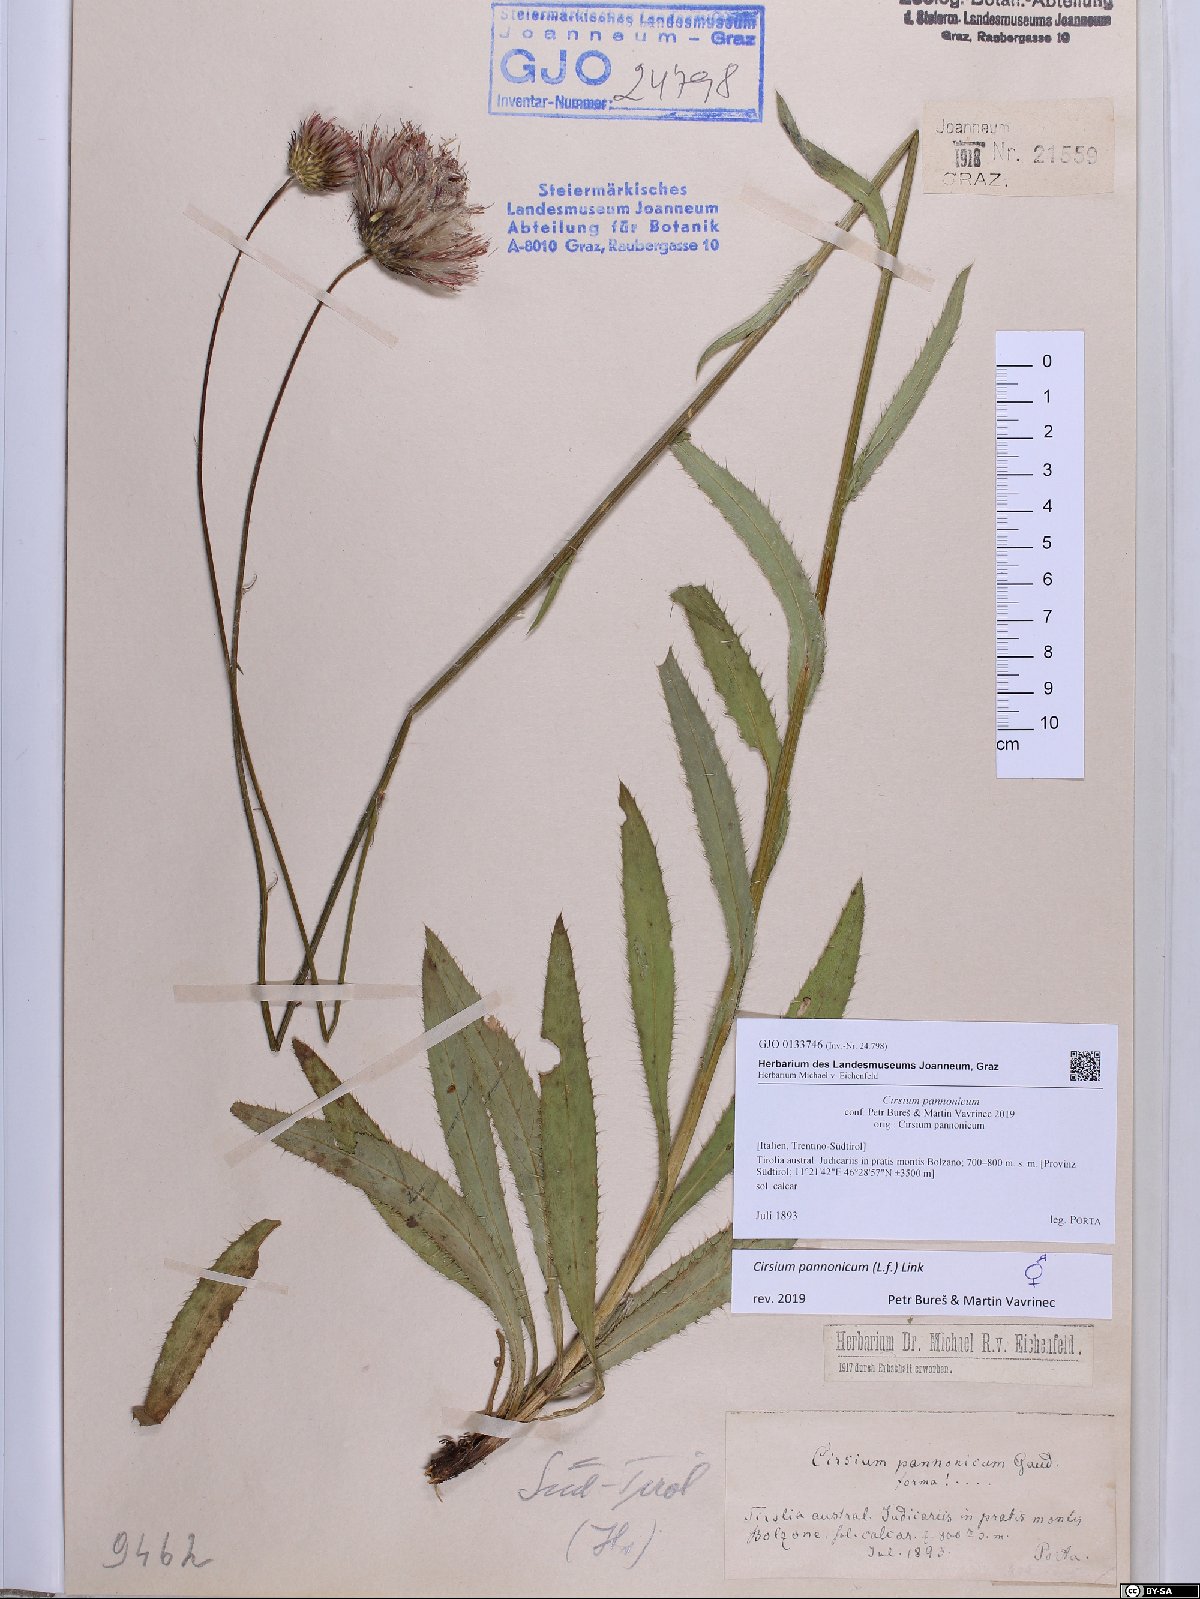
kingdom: Plantae
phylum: Tracheophyta
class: Magnoliopsida
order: Asterales
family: Asteraceae
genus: Cirsium
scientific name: Cirsium pannonicum
